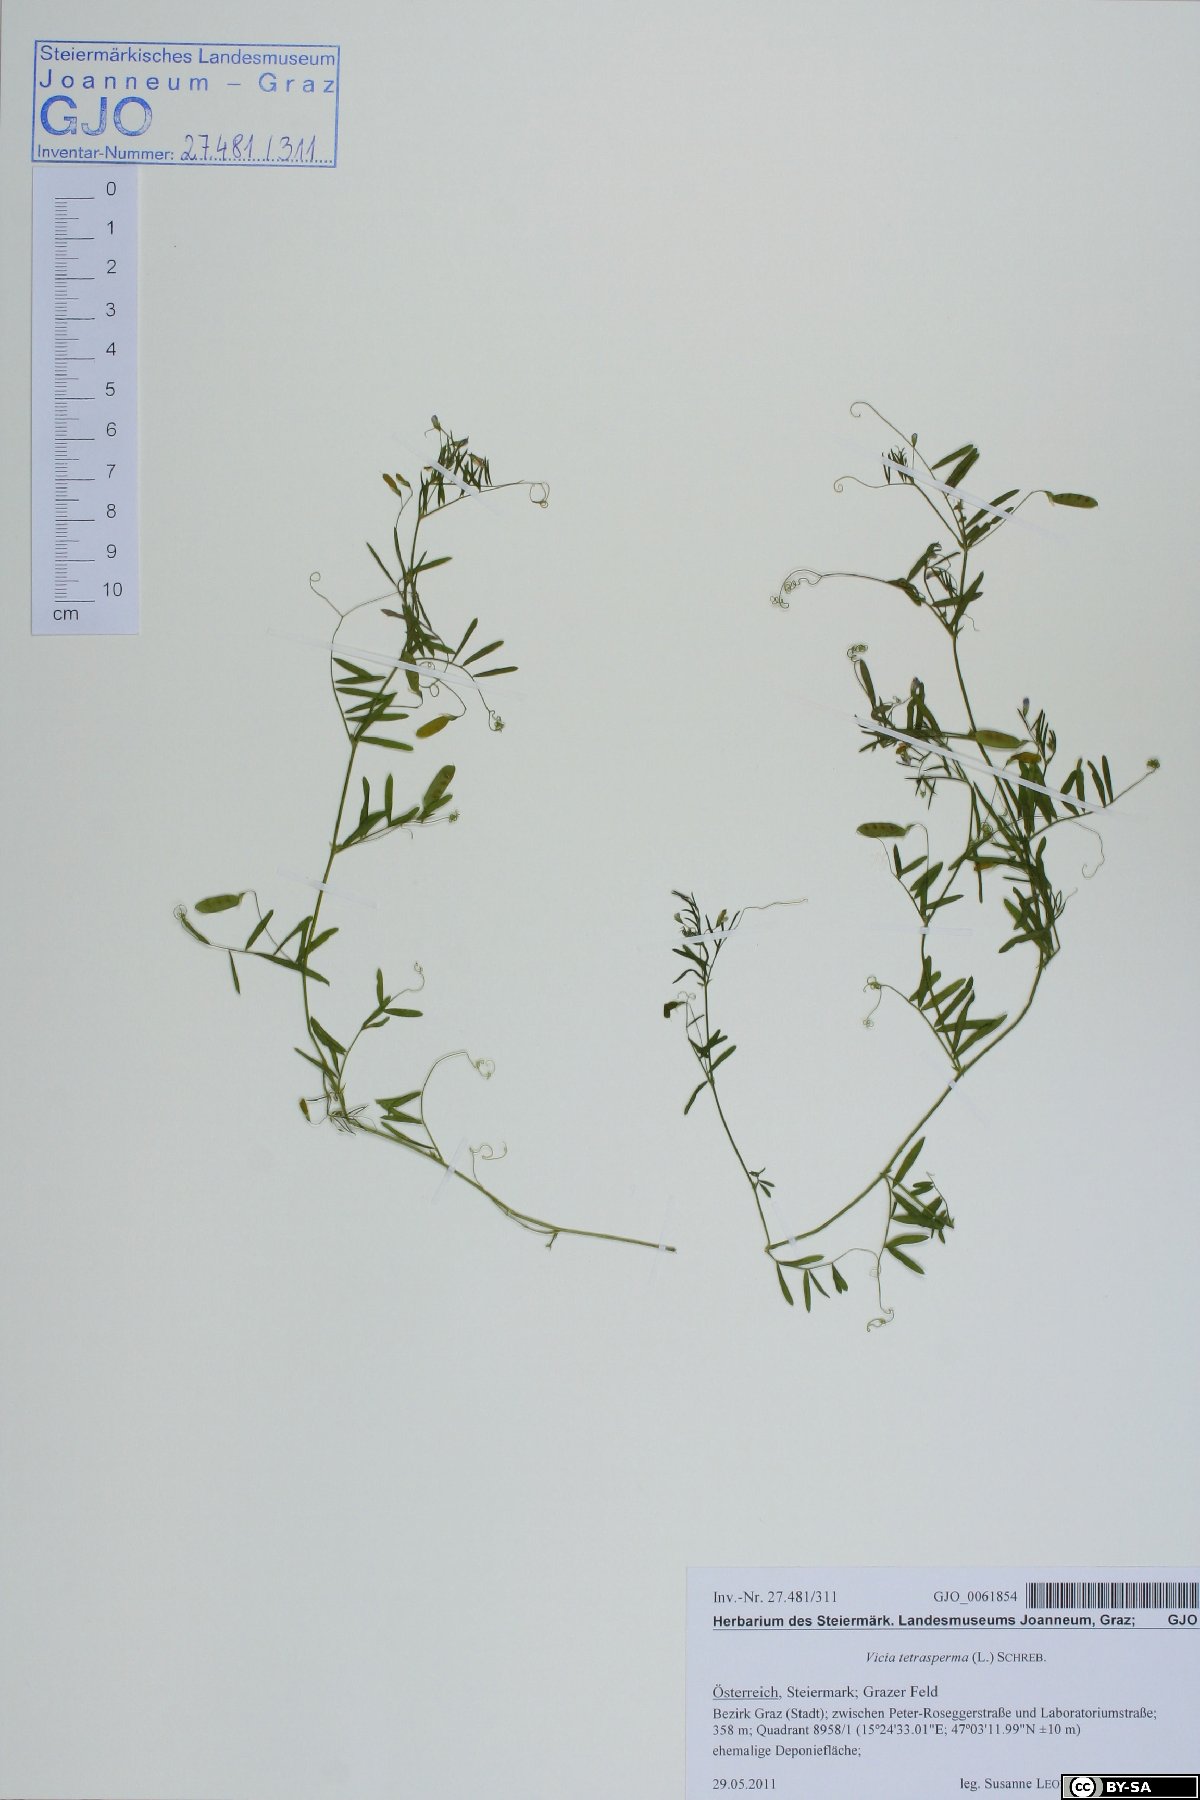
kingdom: Plantae
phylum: Tracheophyta
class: Magnoliopsida
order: Fabales
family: Fabaceae
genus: Vicia
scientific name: Vicia tetrasperma
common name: Smooth tare
